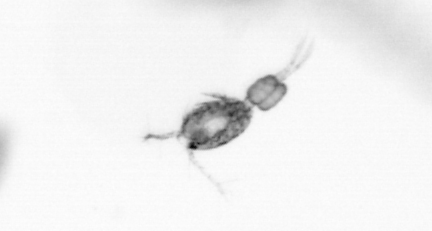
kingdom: Animalia
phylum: Arthropoda
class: Copepoda
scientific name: Copepoda
